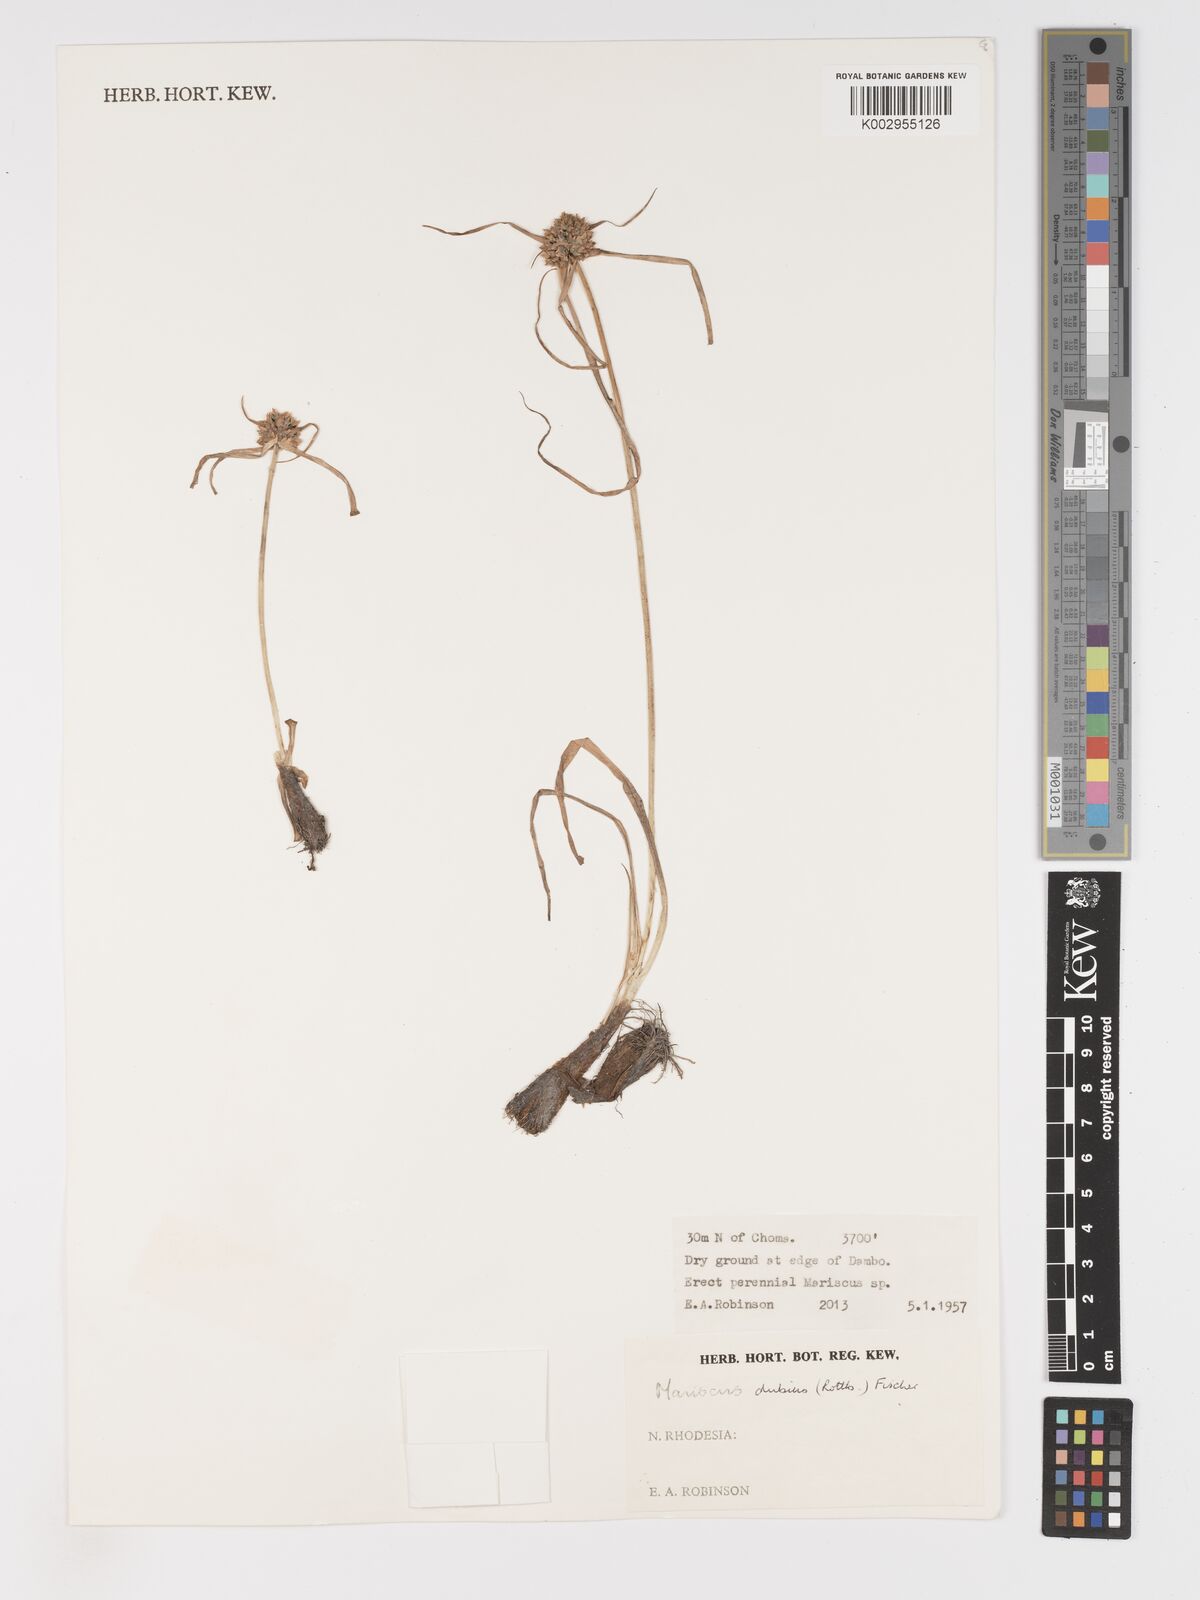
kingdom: Plantae
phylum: Tracheophyta
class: Liliopsida
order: Poales
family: Cyperaceae
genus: Cyperus
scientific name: Cyperus dubius
